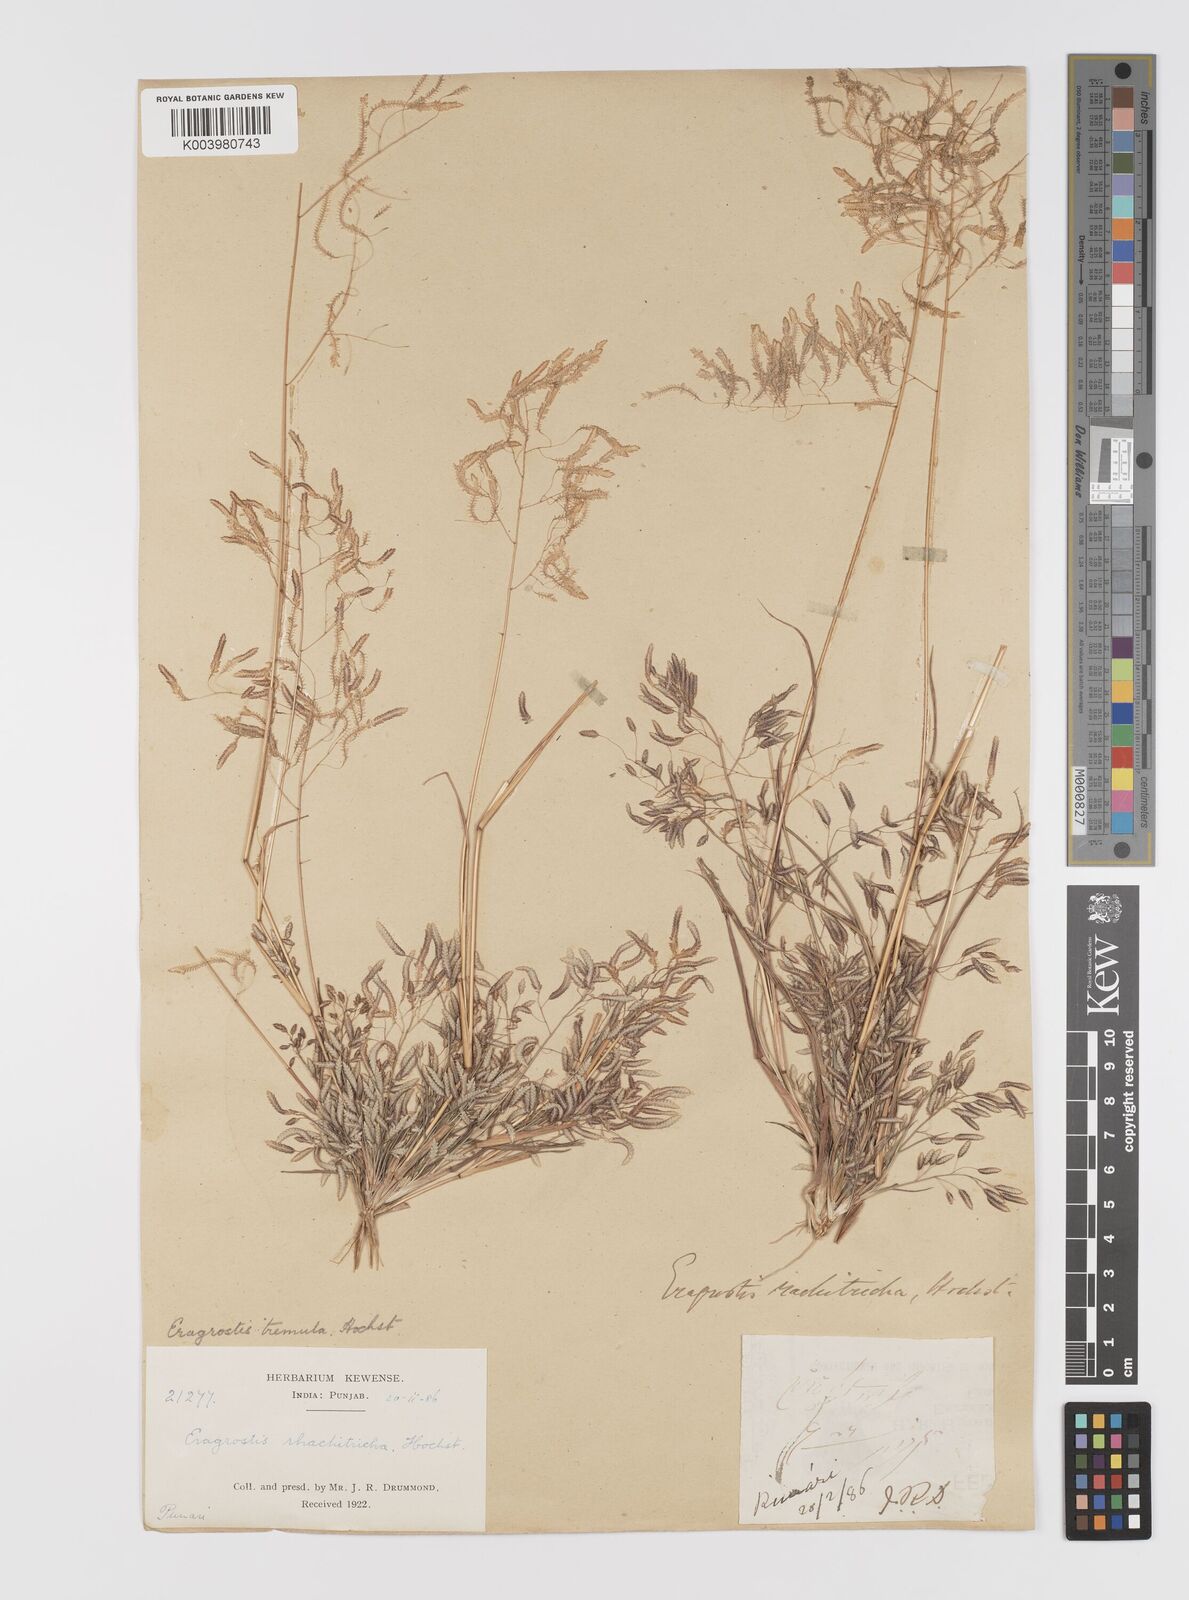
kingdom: Plantae
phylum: Tracheophyta
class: Liliopsida
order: Poales
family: Poaceae
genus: Eragrostis
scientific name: Eragrostis tremula
